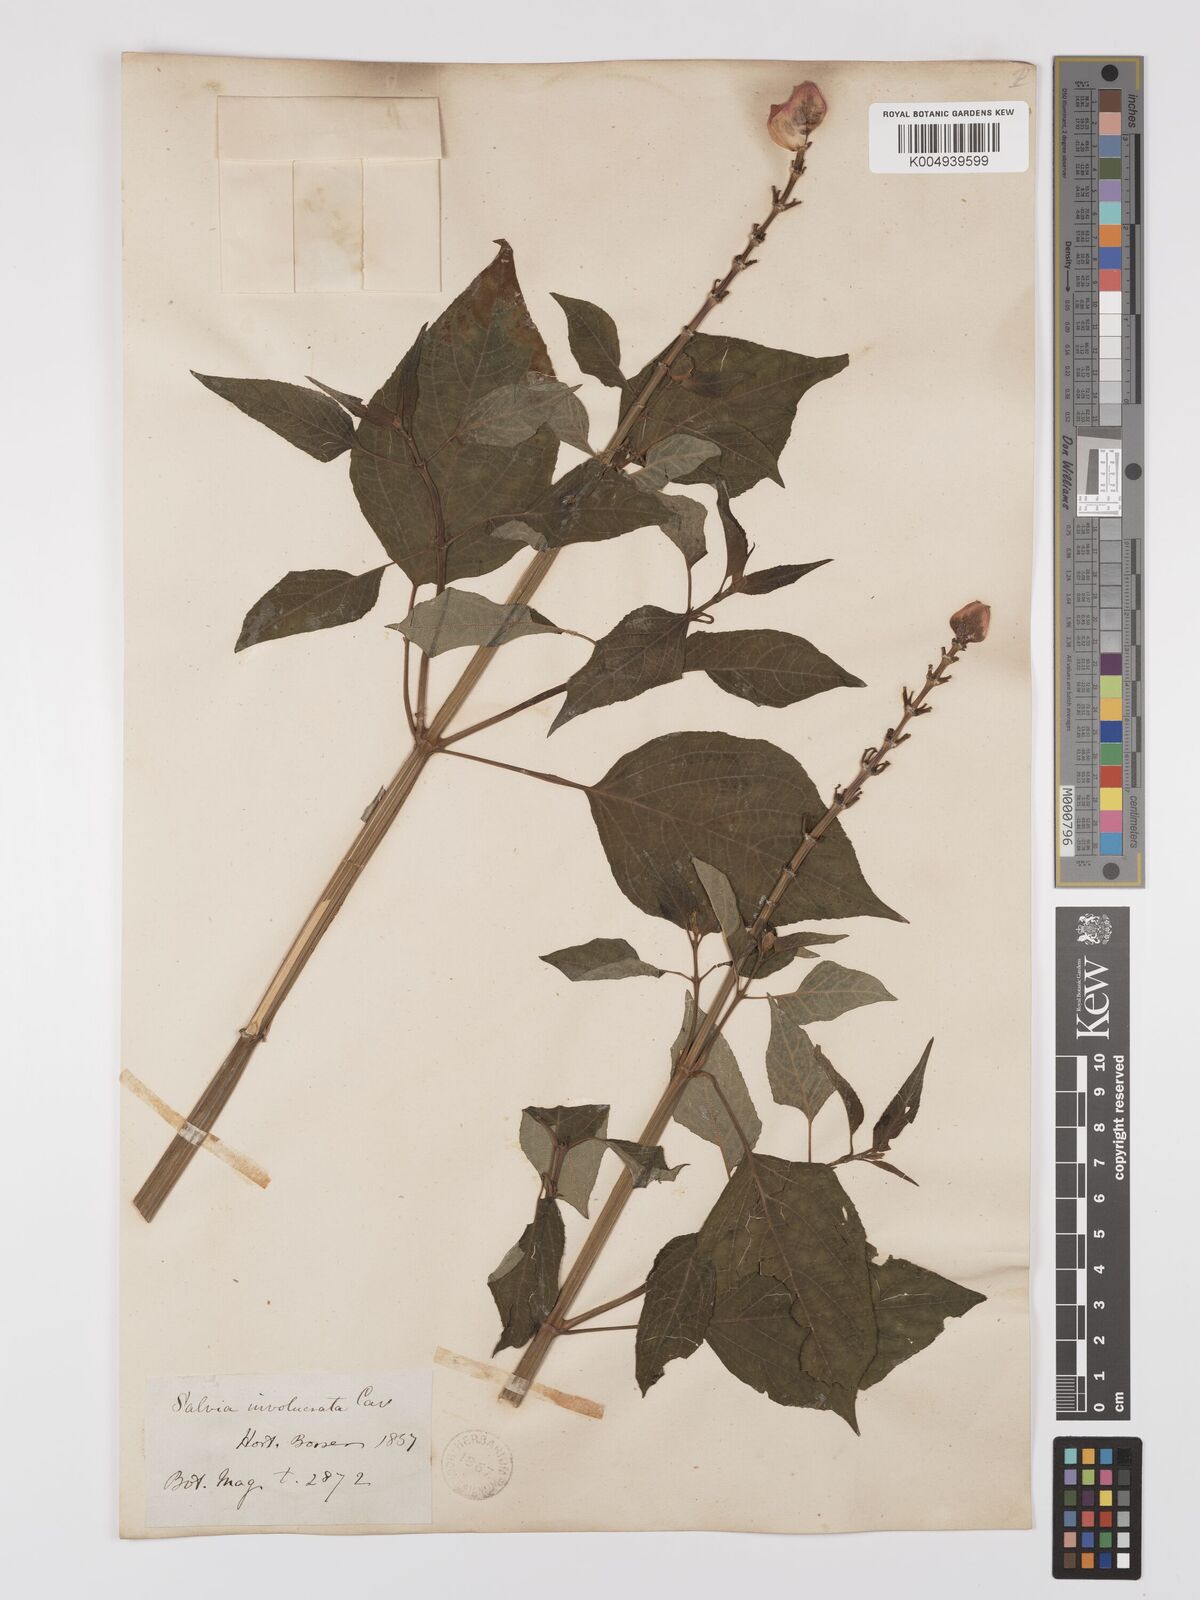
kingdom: Plantae
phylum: Tracheophyta
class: Magnoliopsida
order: Lamiales
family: Lamiaceae
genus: Salvia
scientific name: Salvia involucrata
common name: Roseleaf sage
